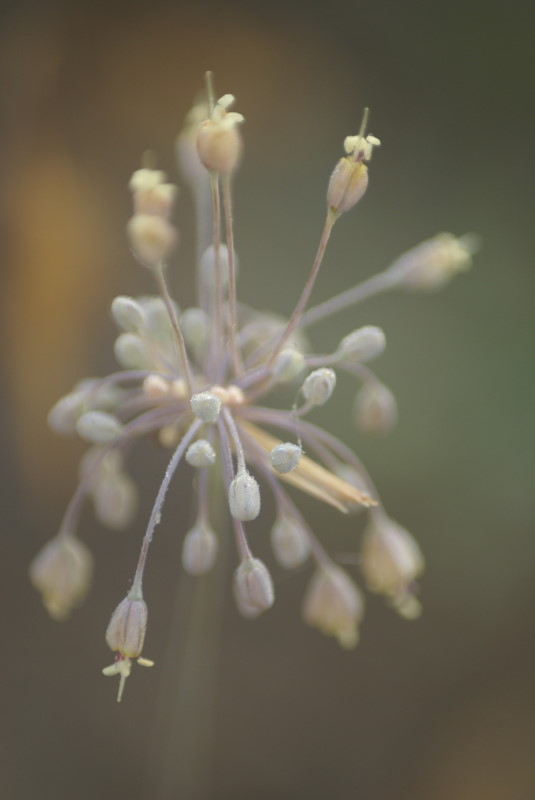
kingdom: Plantae
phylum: Tracheophyta
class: Liliopsida
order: Asparagales
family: Amaryllidaceae
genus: Allium
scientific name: Allium praescissum
